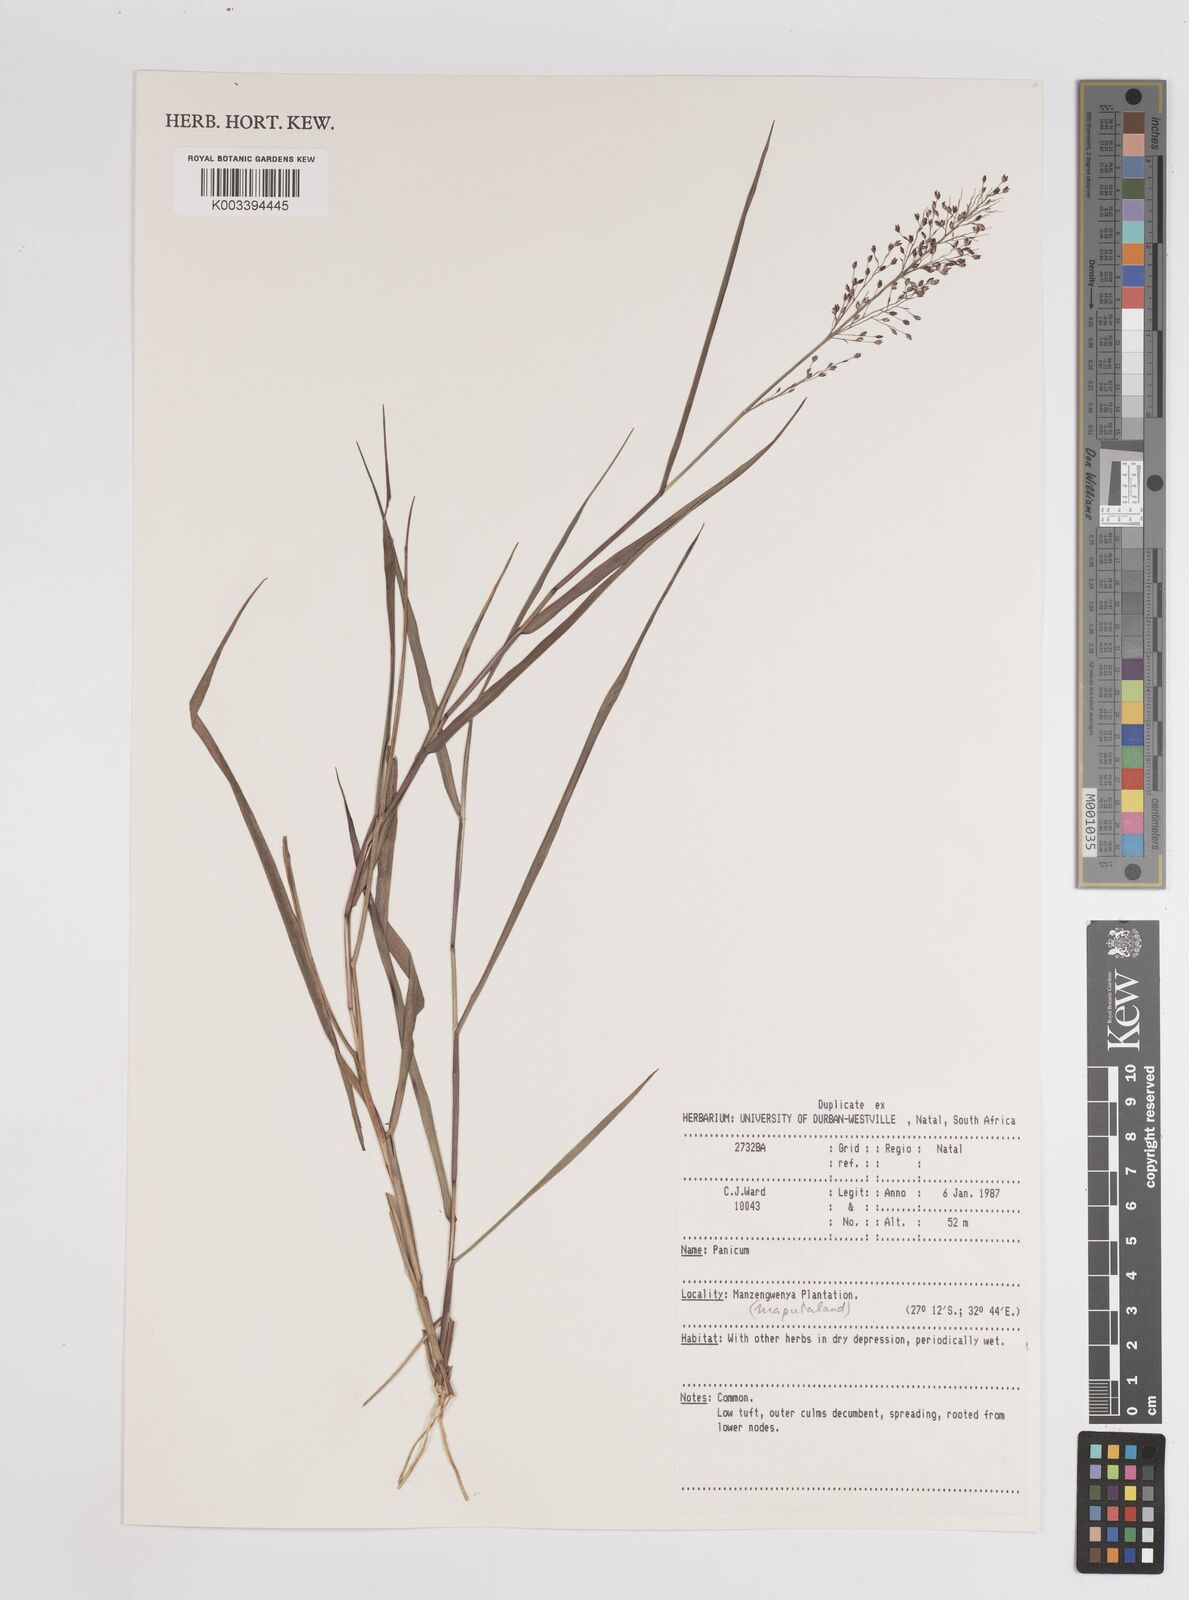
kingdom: Plantae
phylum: Tracheophyta
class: Liliopsida
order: Poales
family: Poaceae
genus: Adenochloa
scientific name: Adenochloa pectinella
